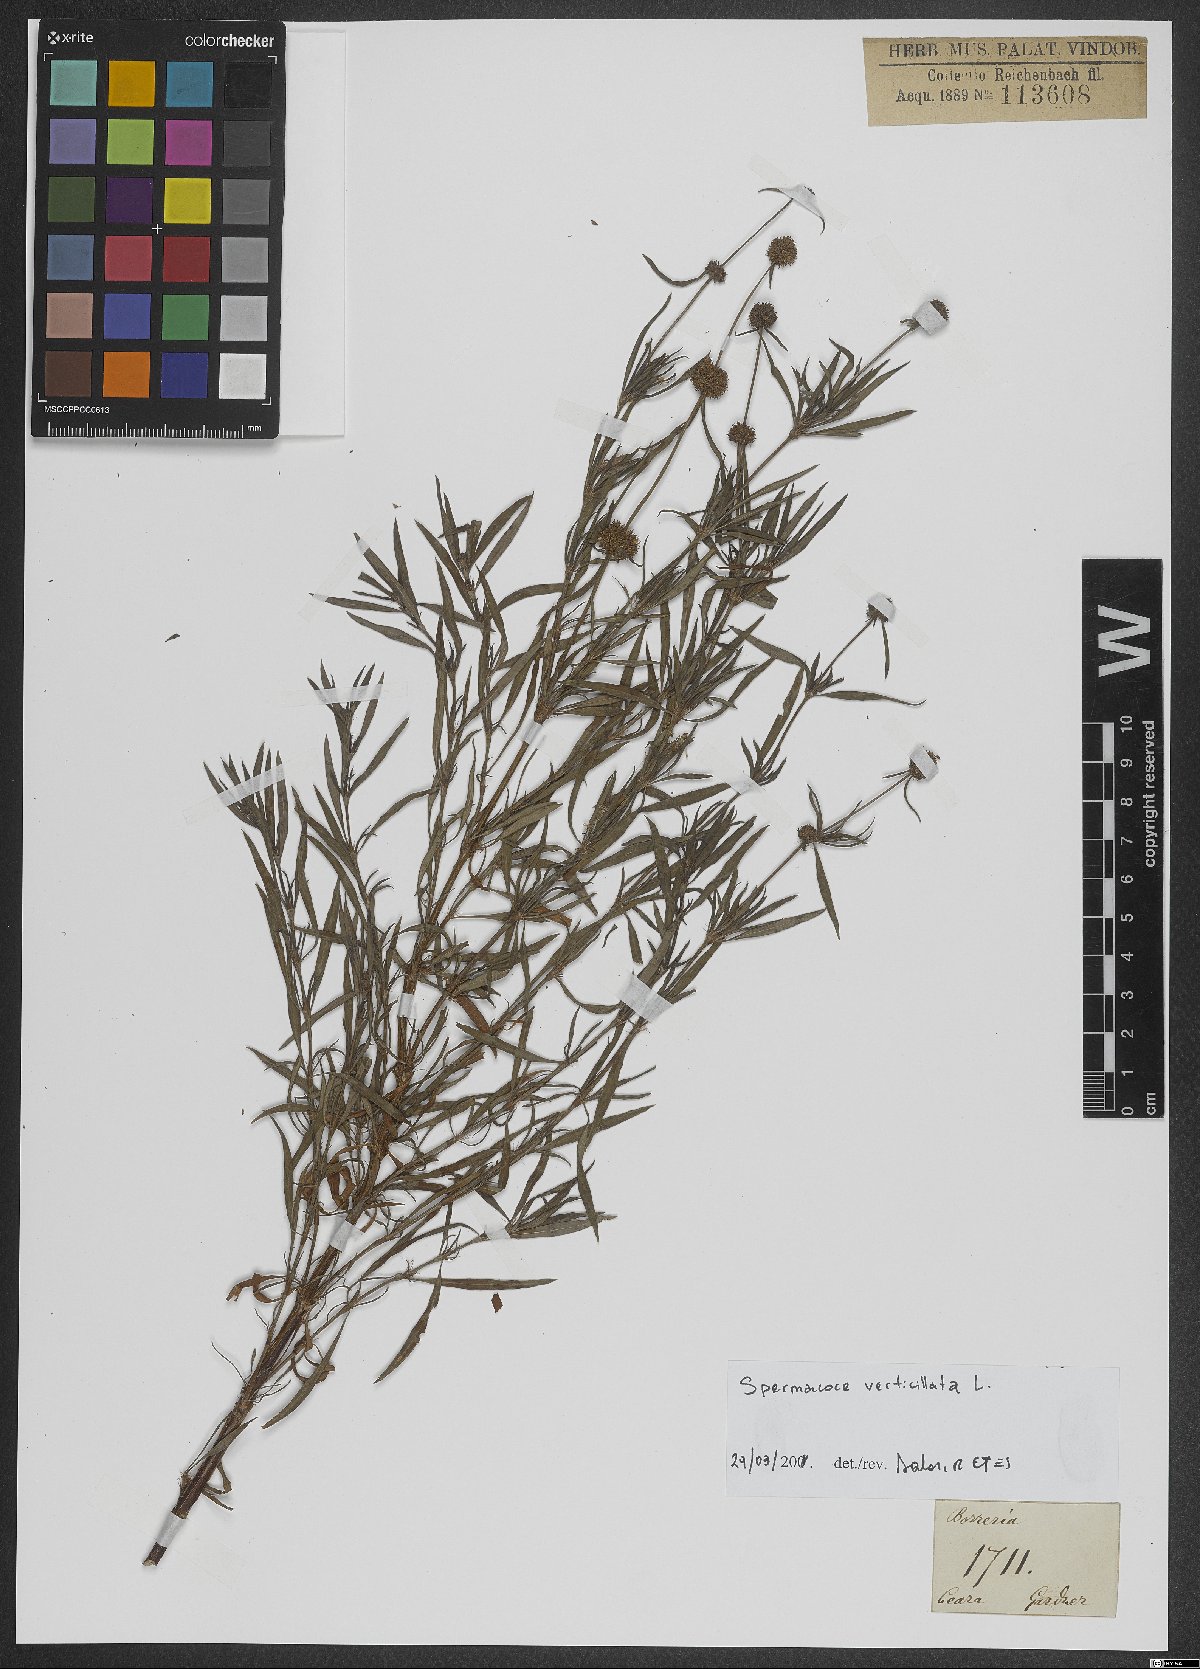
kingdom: Plantae
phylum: Tracheophyta
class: Magnoliopsida
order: Gentianales
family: Rubiaceae
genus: Spermacoce
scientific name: Spermacoce verticillata
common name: Shrubby false buttonweed
